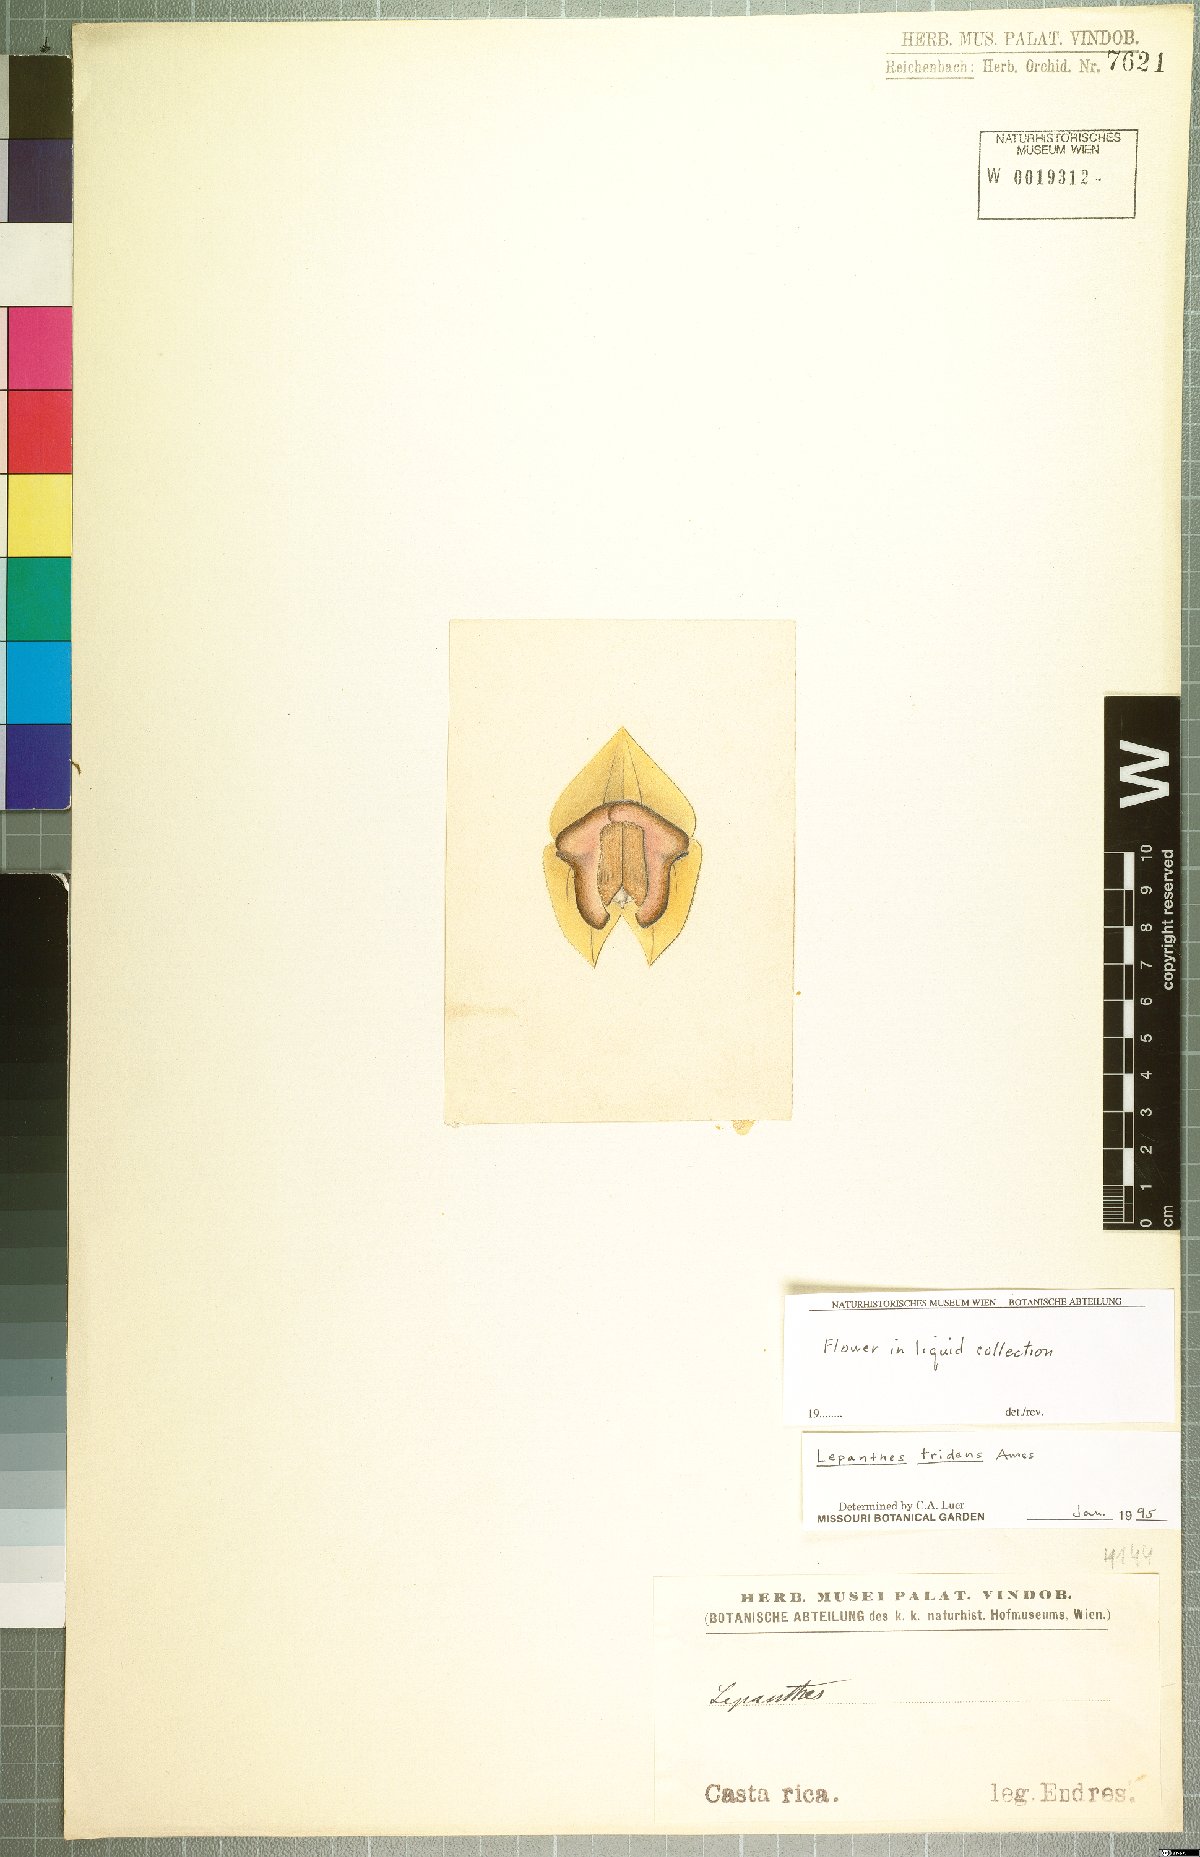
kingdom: Plantae
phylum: Tracheophyta
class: Liliopsida
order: Asparagales
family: Orchidaceae
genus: Lepanthes
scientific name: Lepanthes tridens
